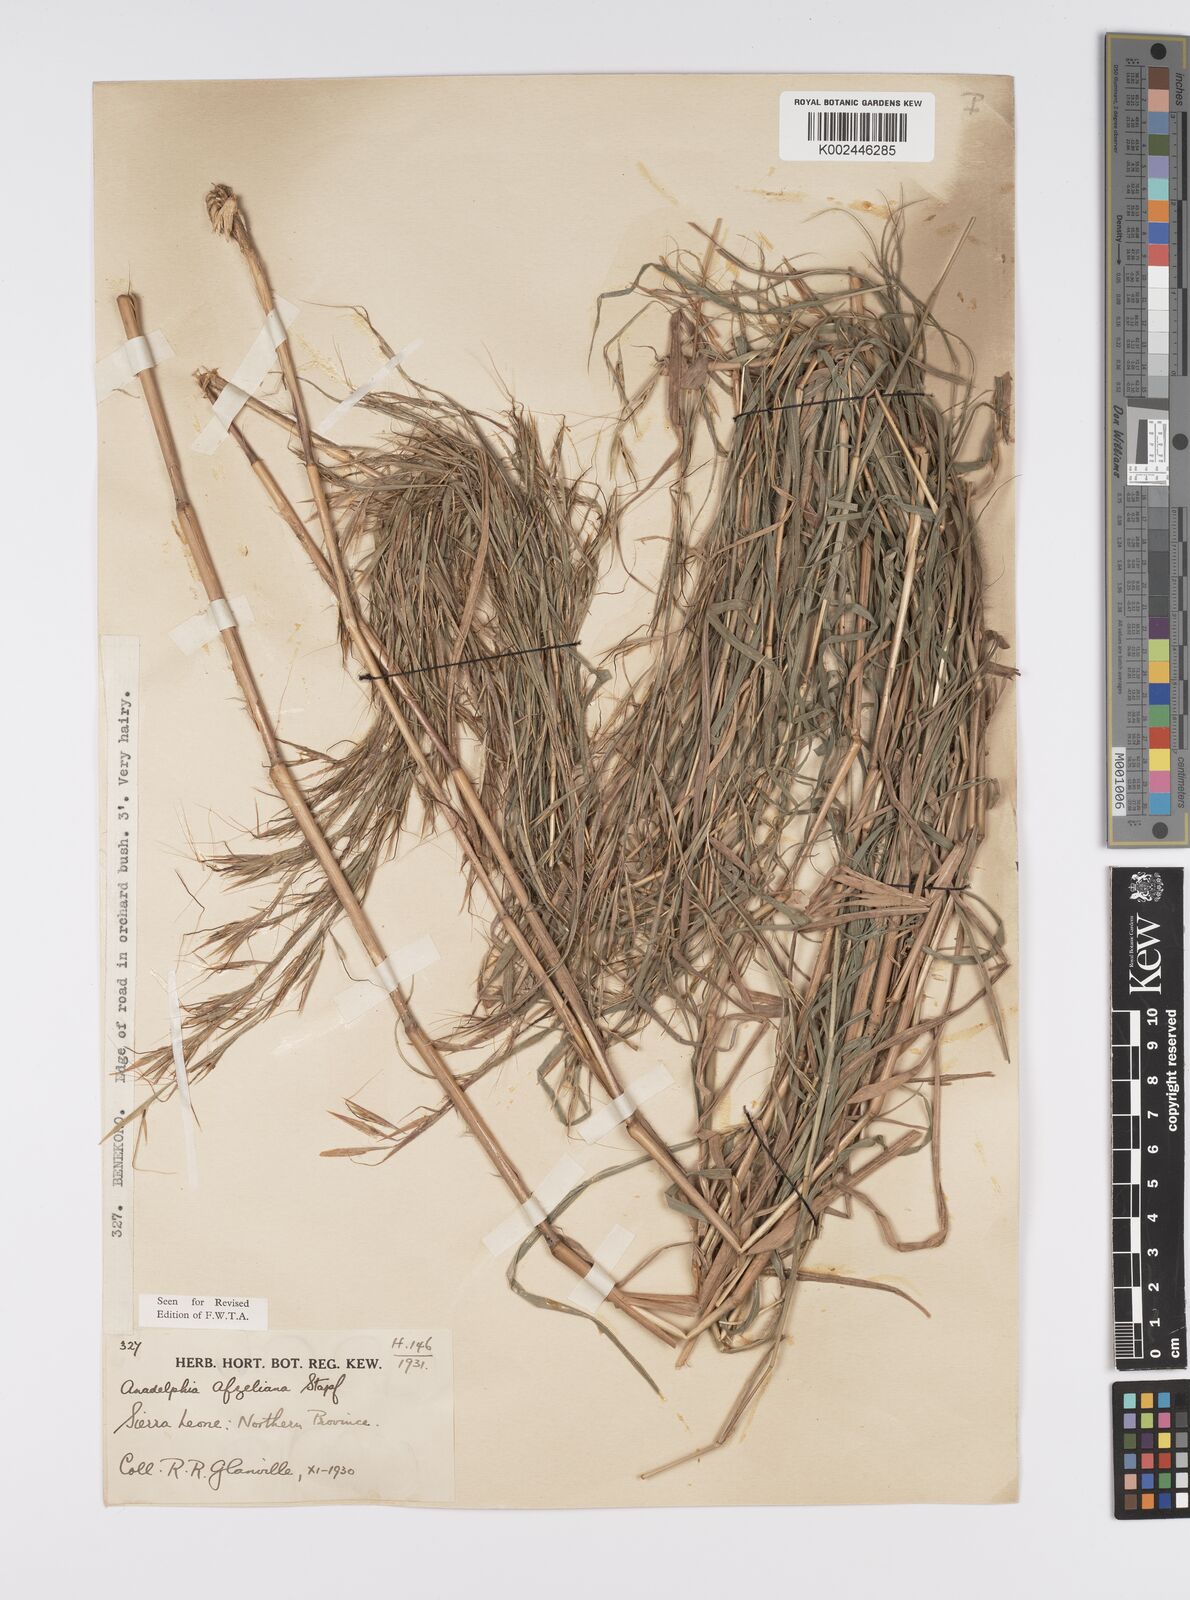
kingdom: Plantae
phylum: Tracheophyta
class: Liliopsida
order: Poales
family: Poaceae
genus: Anadelphia
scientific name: Anadelphia afzeliana
